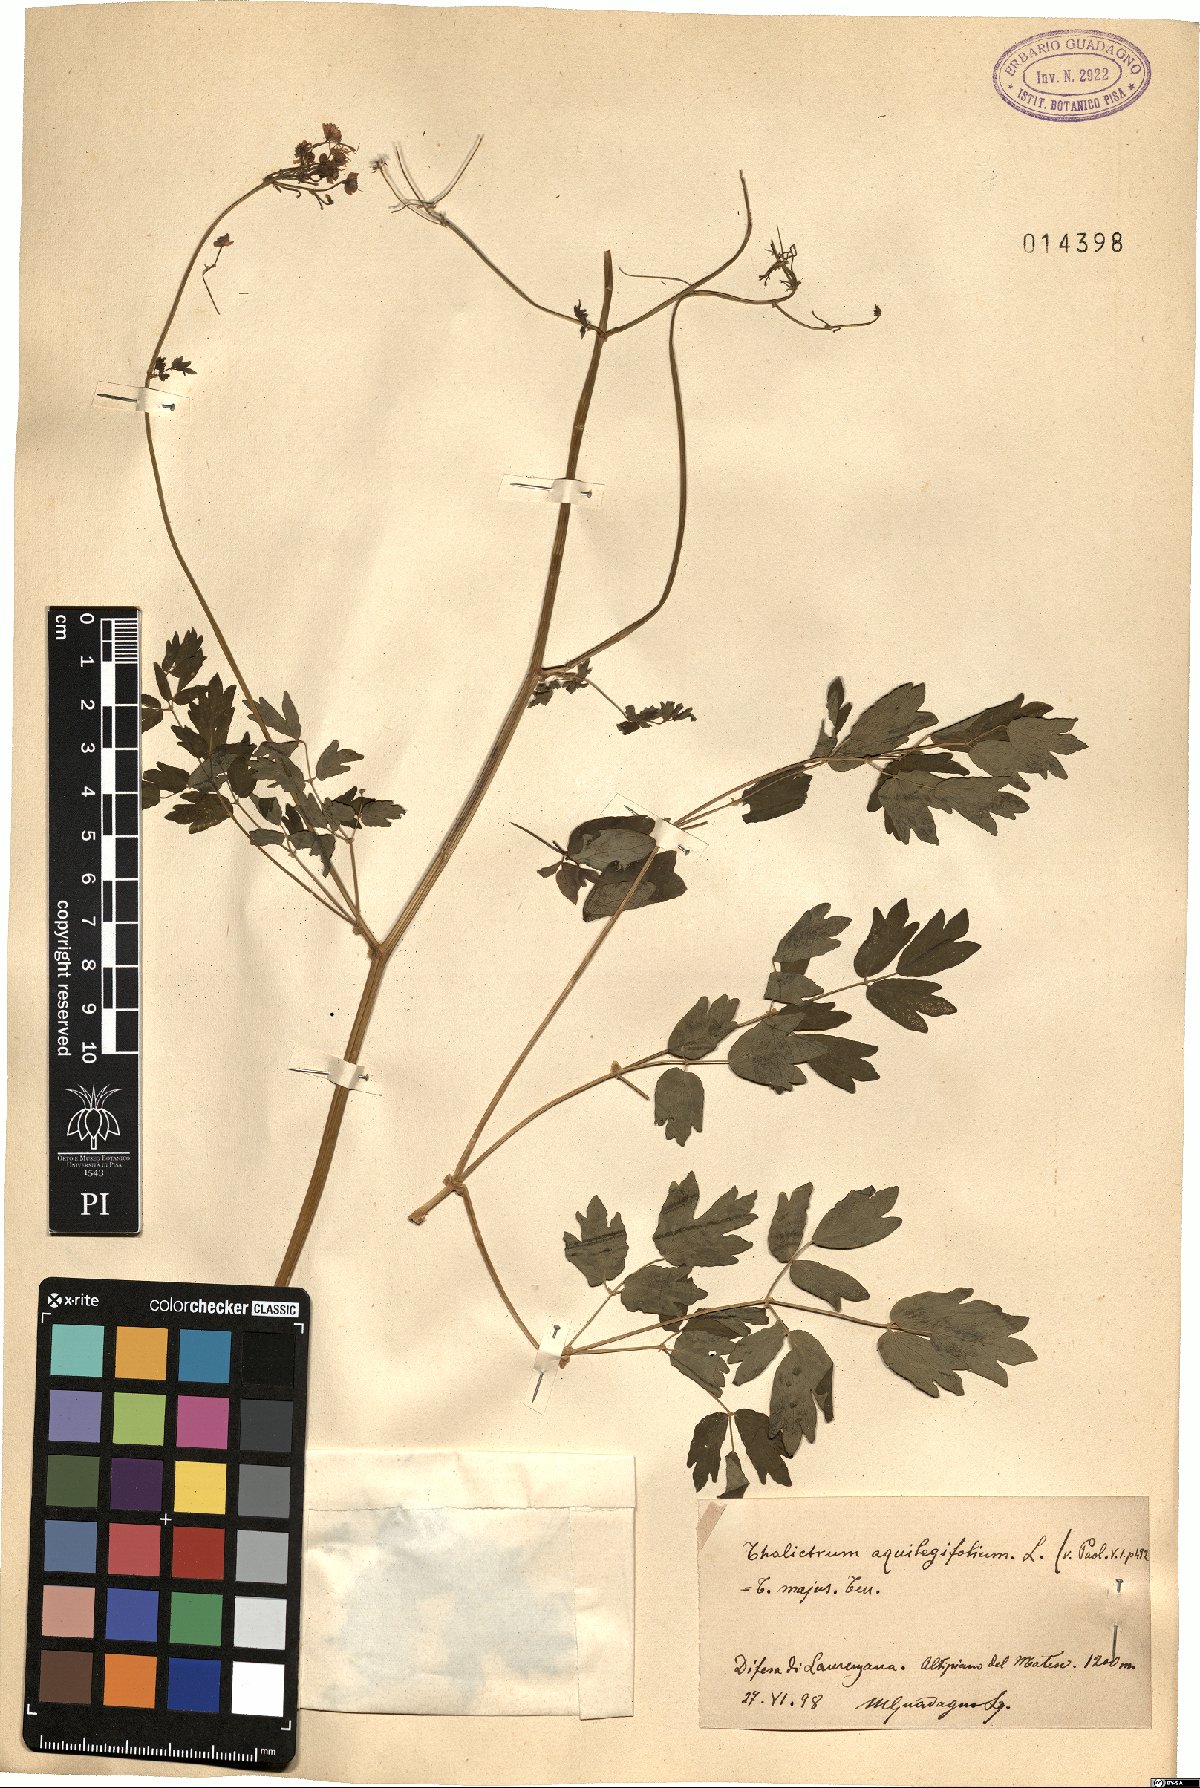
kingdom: Plantae
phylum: Tracheophyta
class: Magnoliopsida
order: Ranunculales
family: Ranunculaceae
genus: Thalictrum
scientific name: Thalictrum aquilegiifolium
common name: French meadow-rue
